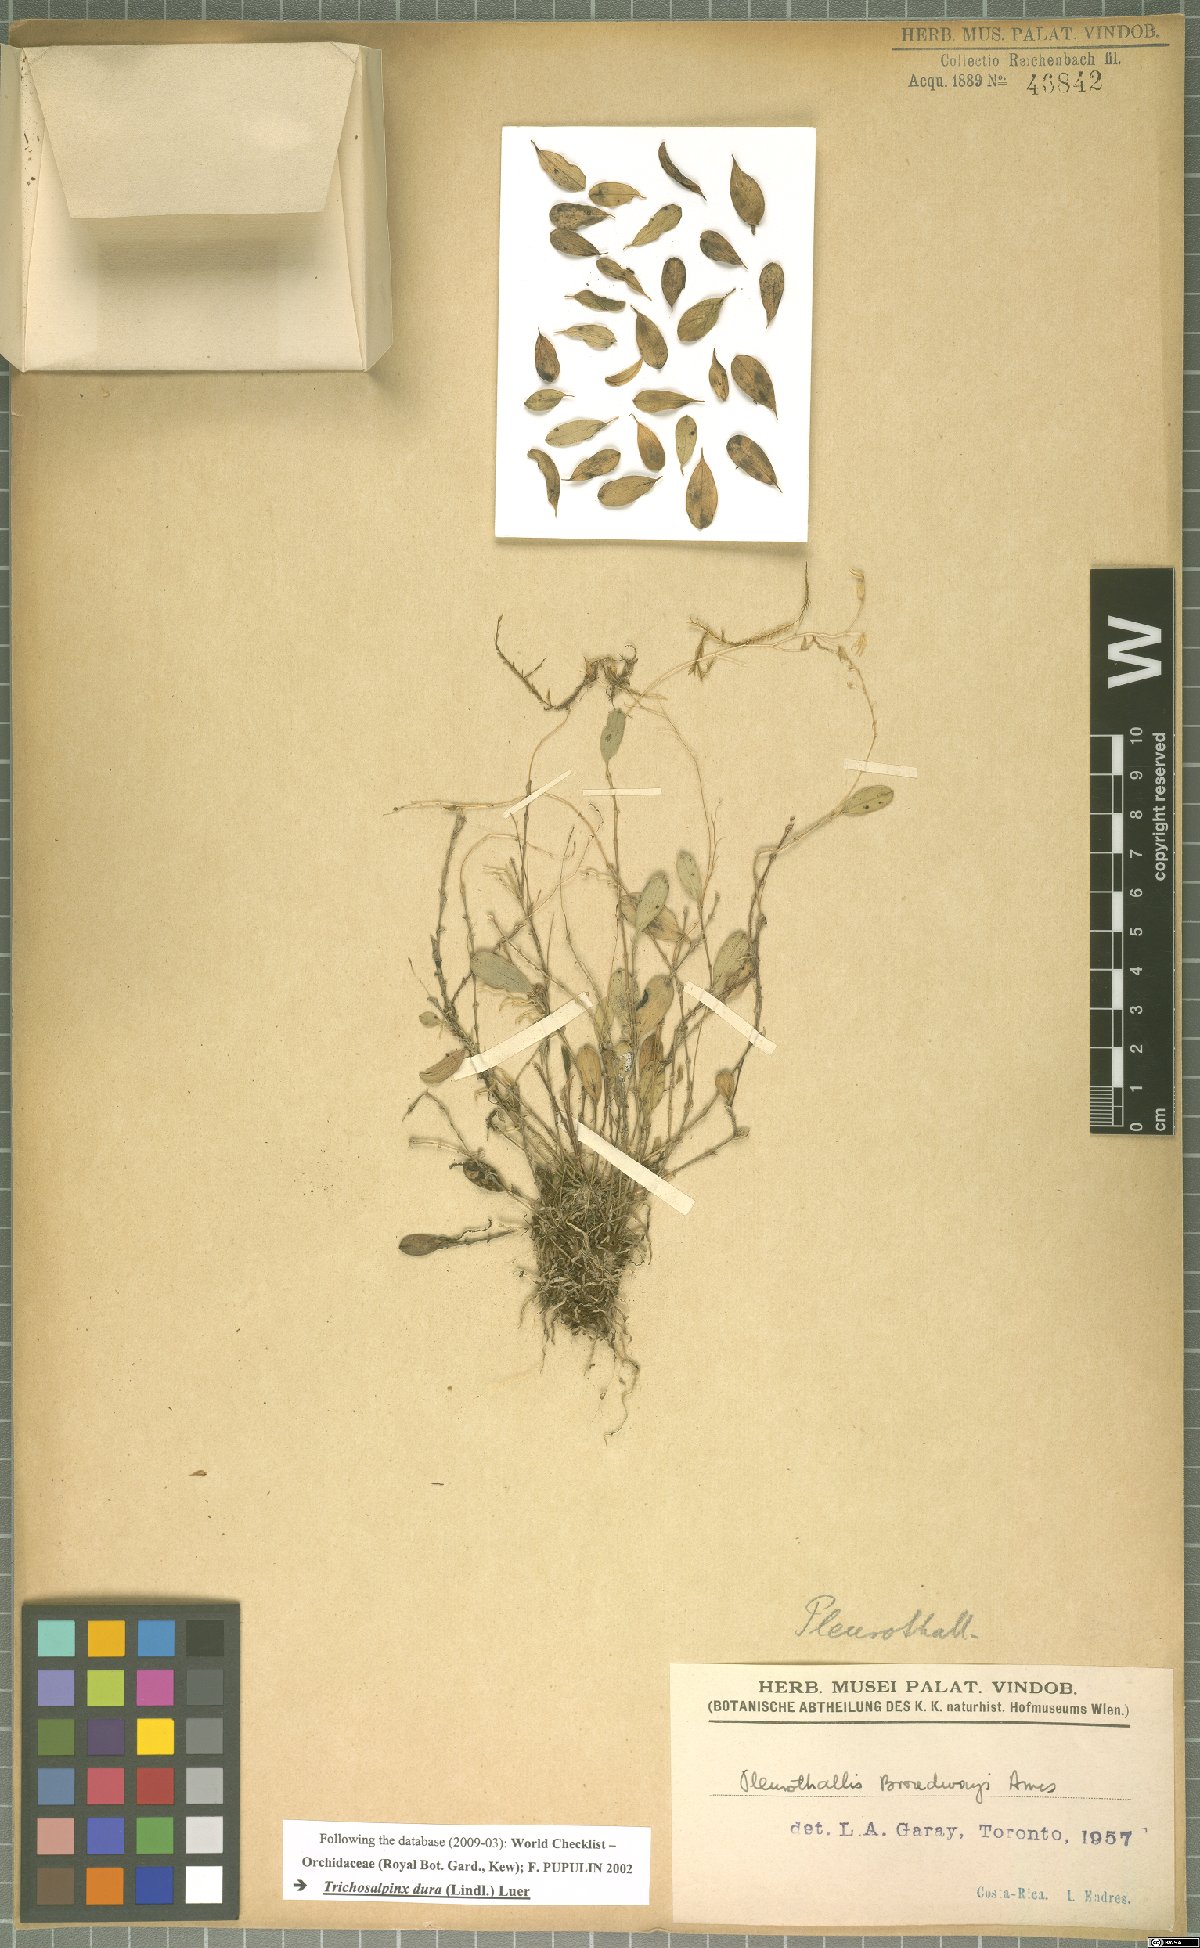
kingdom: Plantae
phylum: Tracheophyta
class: Liliopsida
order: Asparagales
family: Orchidaceae
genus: Trichosalpinx
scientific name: Trichosalpinx dura
